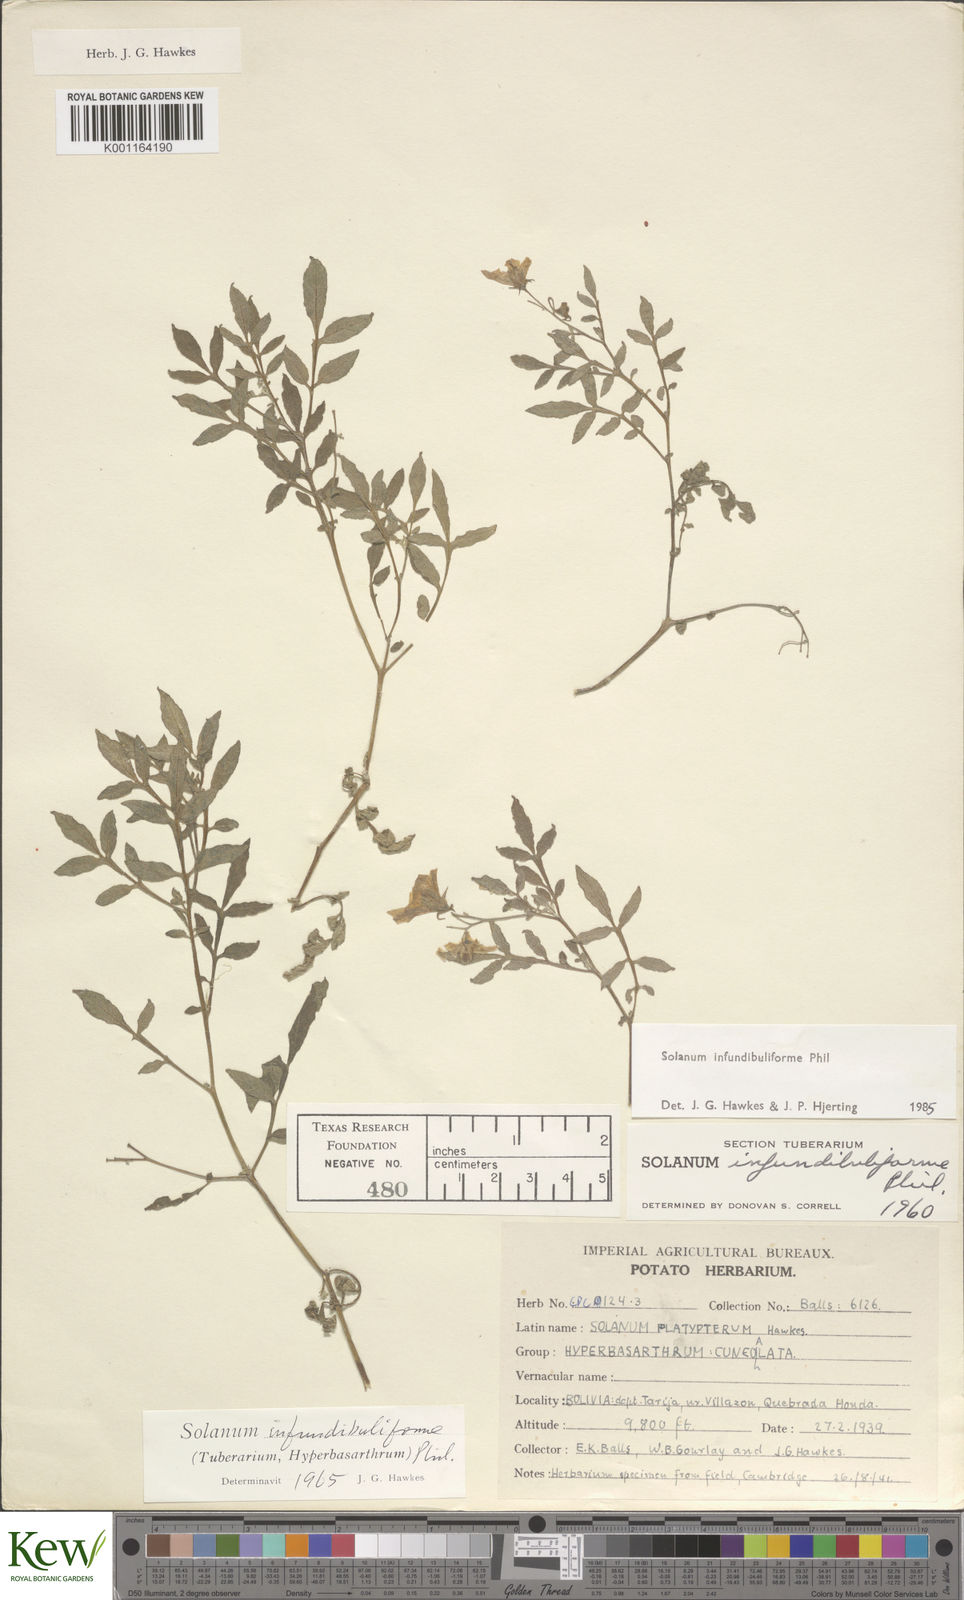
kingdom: Plantae
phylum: Tracheophyta
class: Magnoliopsida
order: Solanales
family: Solanaceae
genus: Solanum
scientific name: Solanum infundibuliforme
